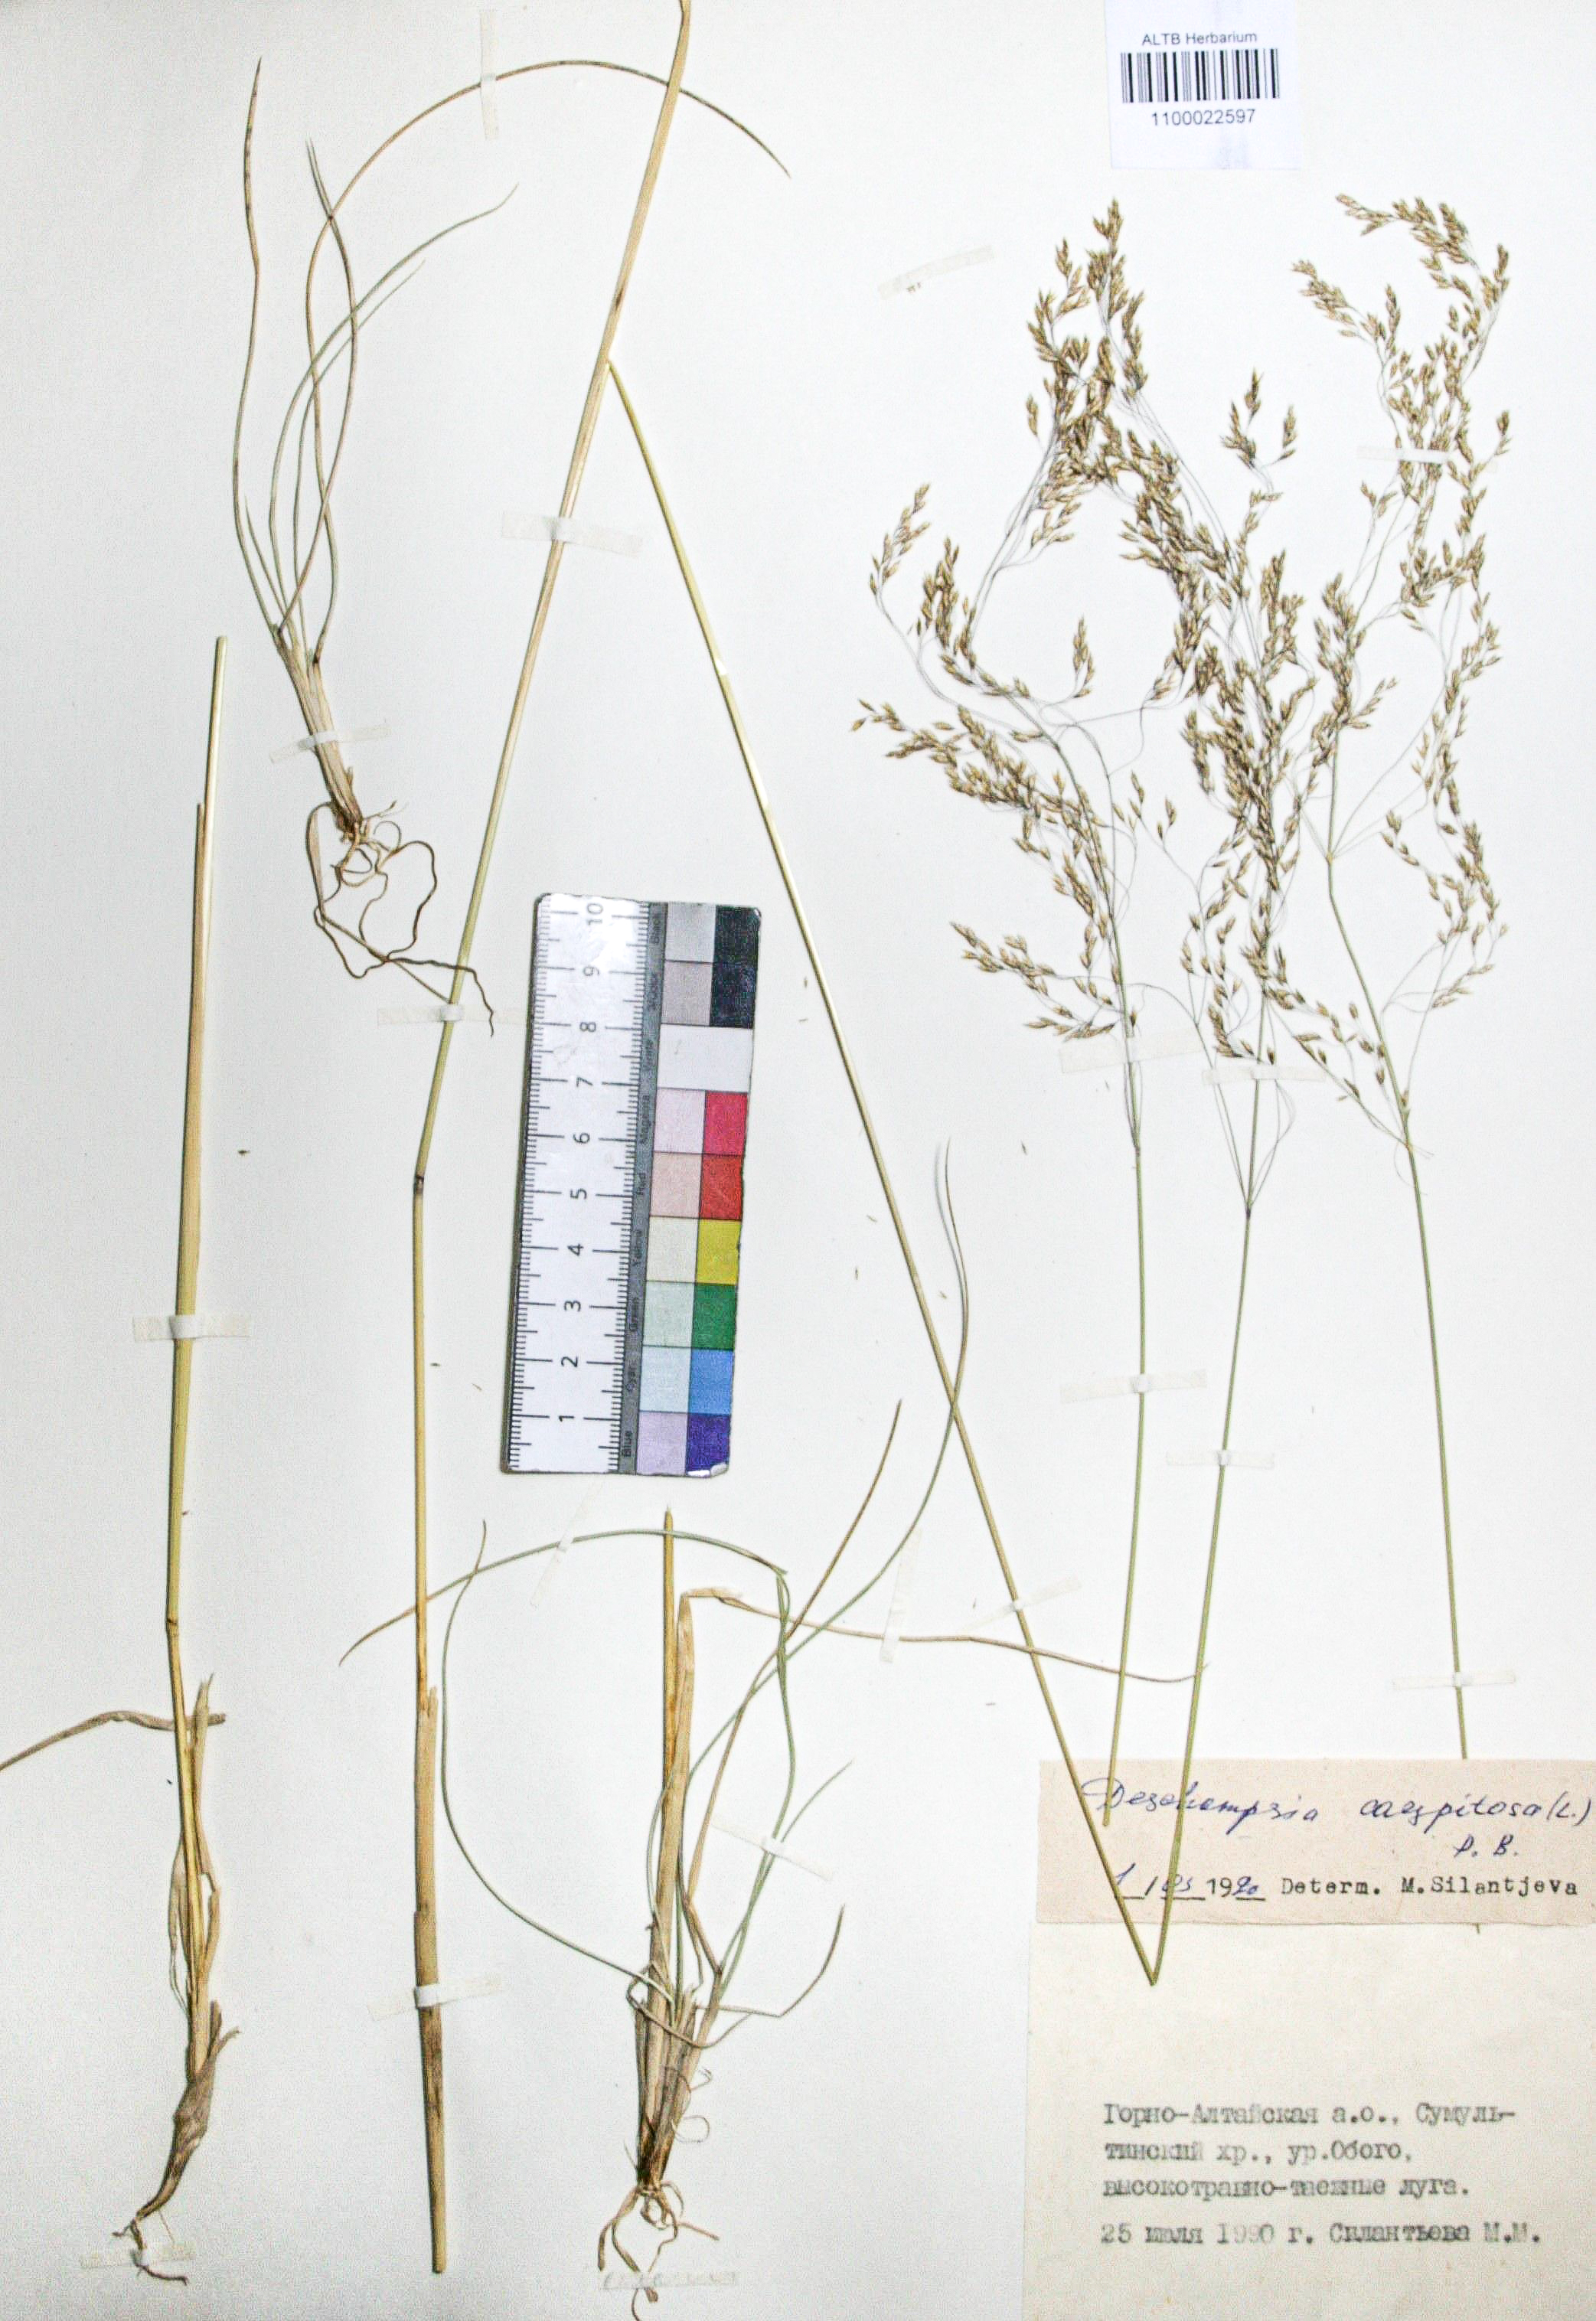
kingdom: Plantae
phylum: Tracheophyta
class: Liliopsida
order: Poales
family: Poaceae
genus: Deschampsia
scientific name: Deschampsia cespitosa
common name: Tufted hair-grass
